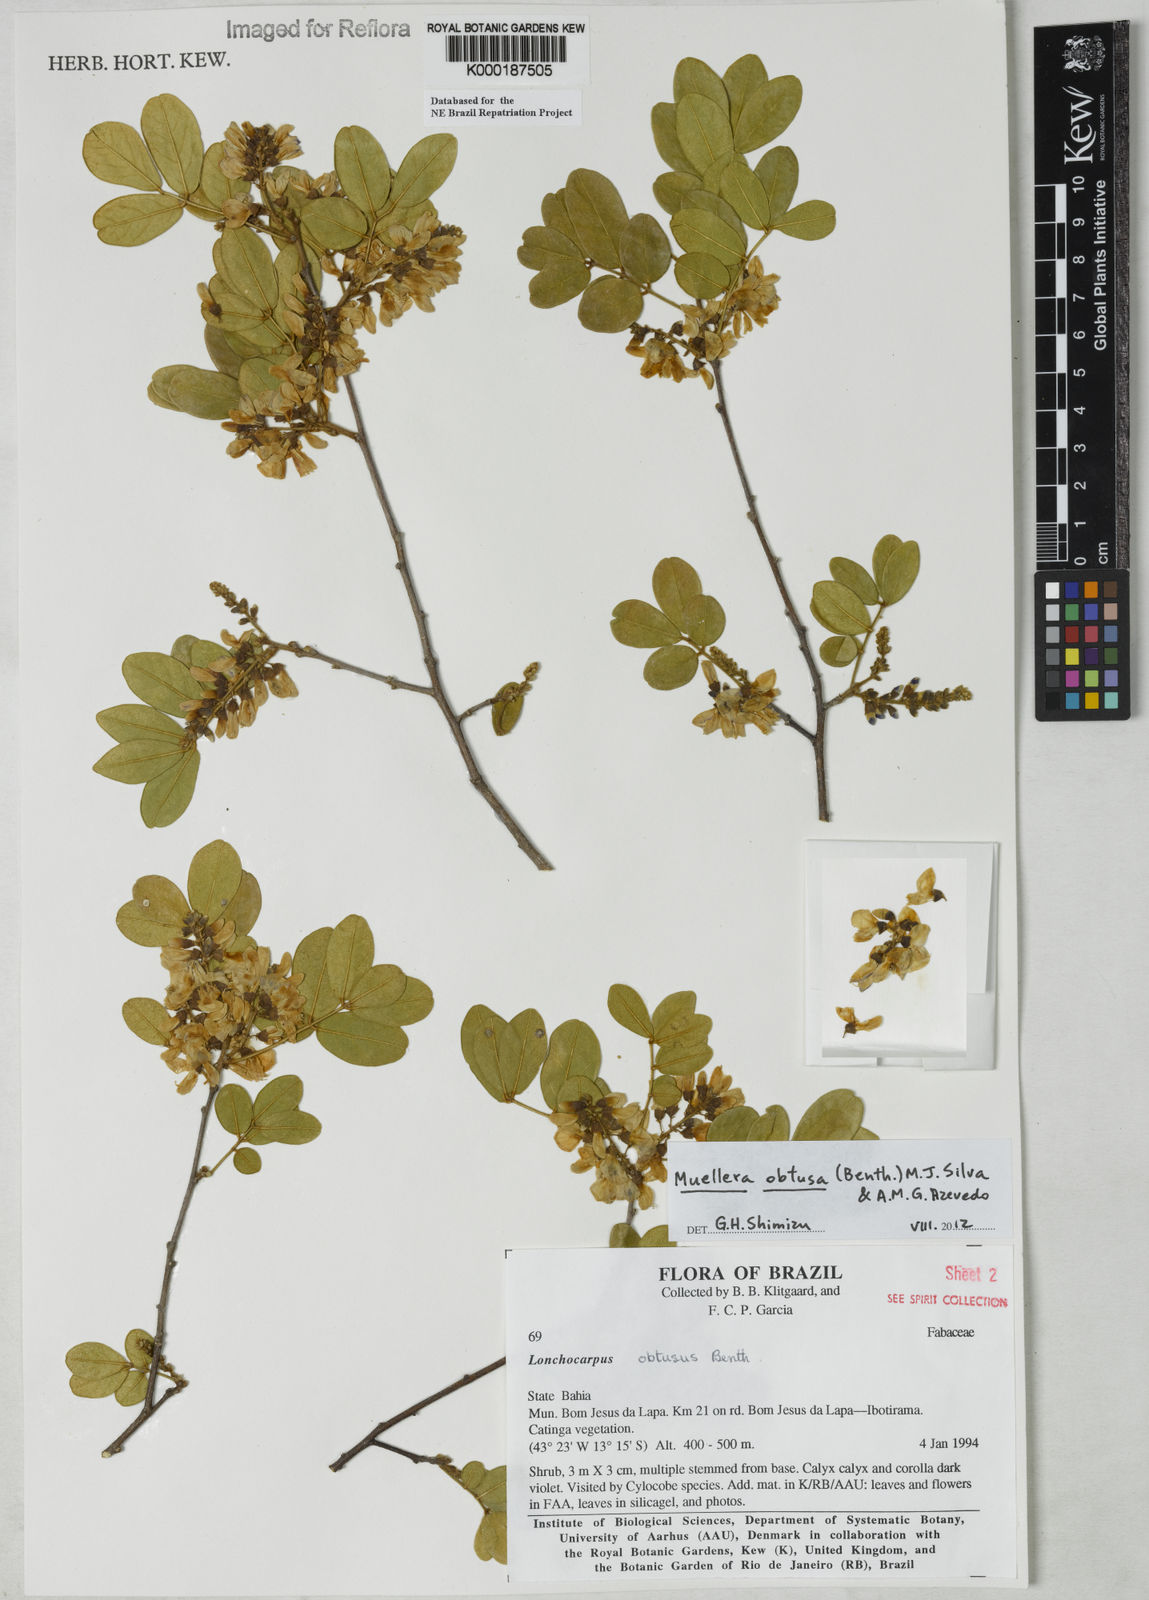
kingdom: Plantae
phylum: Tracheophyta
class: Magnoliopsida
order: Fabales
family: Fabaceae
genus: Muellera
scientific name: Muellera obtusa
